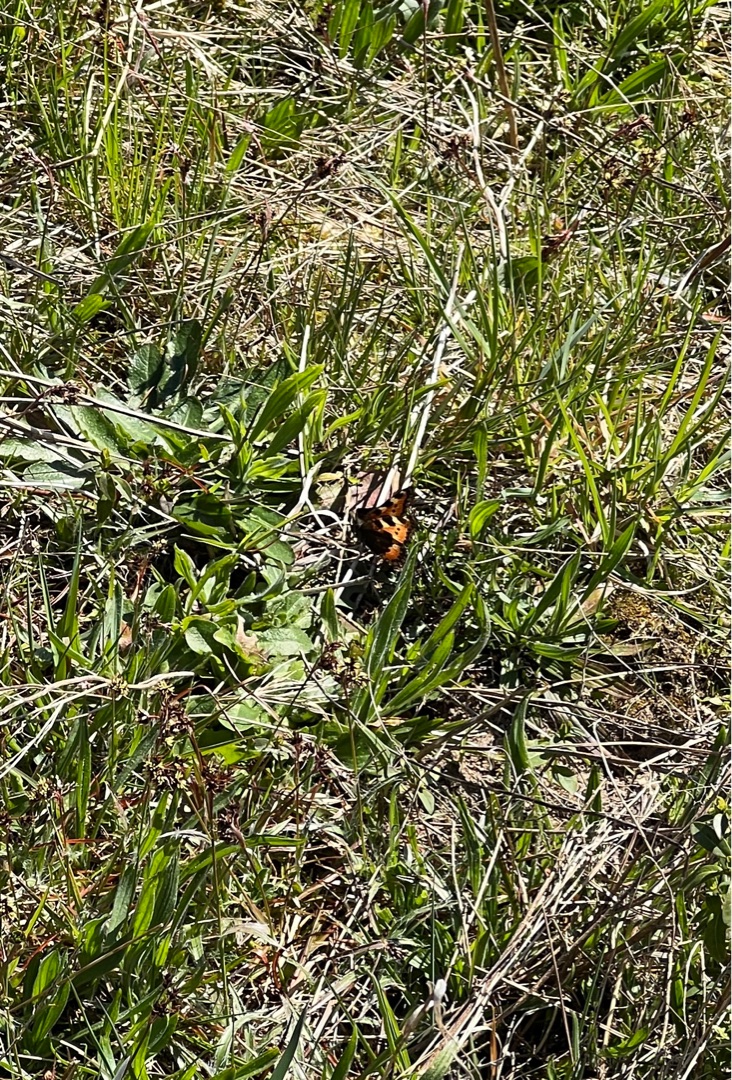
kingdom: Animalia
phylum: Arthropoda
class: Insecta
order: Lepidoptera
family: Nymphalidae
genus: Aglais
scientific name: Aglais urticae
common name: Nældens takvinge
